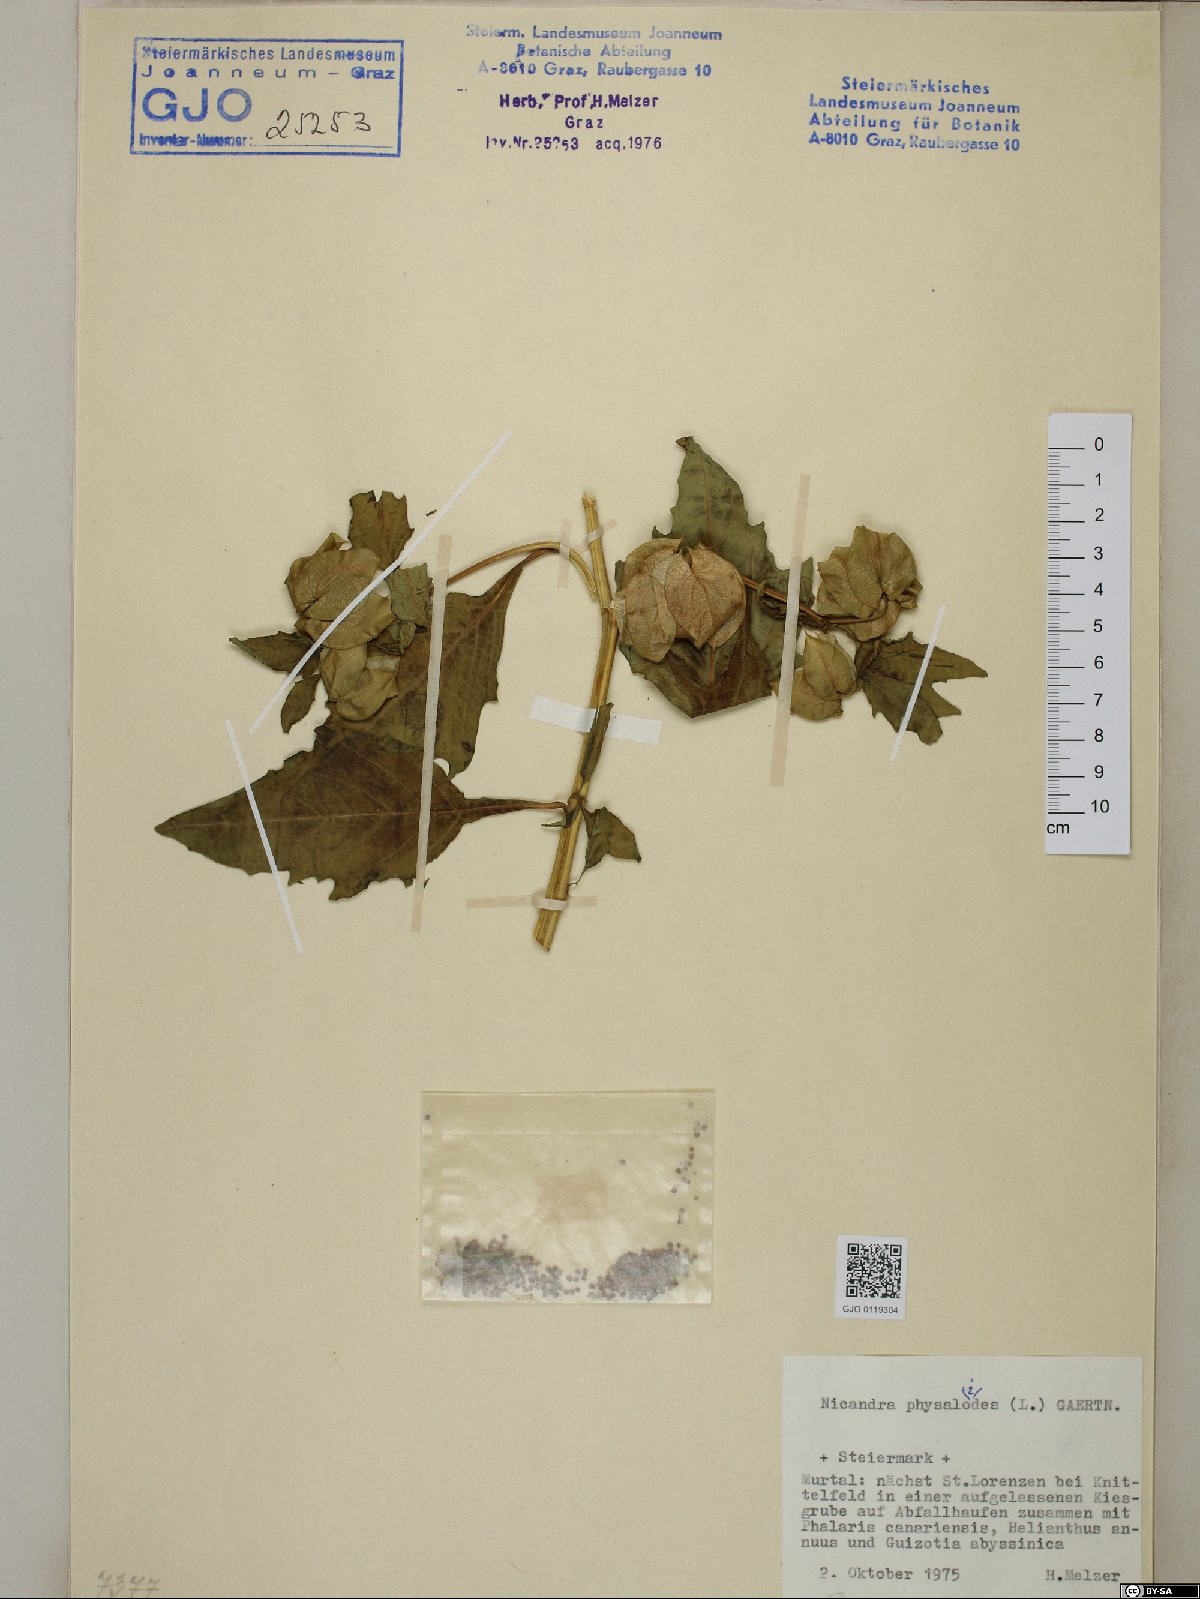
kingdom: Plantae
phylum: Tracheophyta
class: Magnoliopsida
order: Solanales
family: Solanaceae
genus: Nicandra
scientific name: Nicandra physalodes
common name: Apple-of-peru
